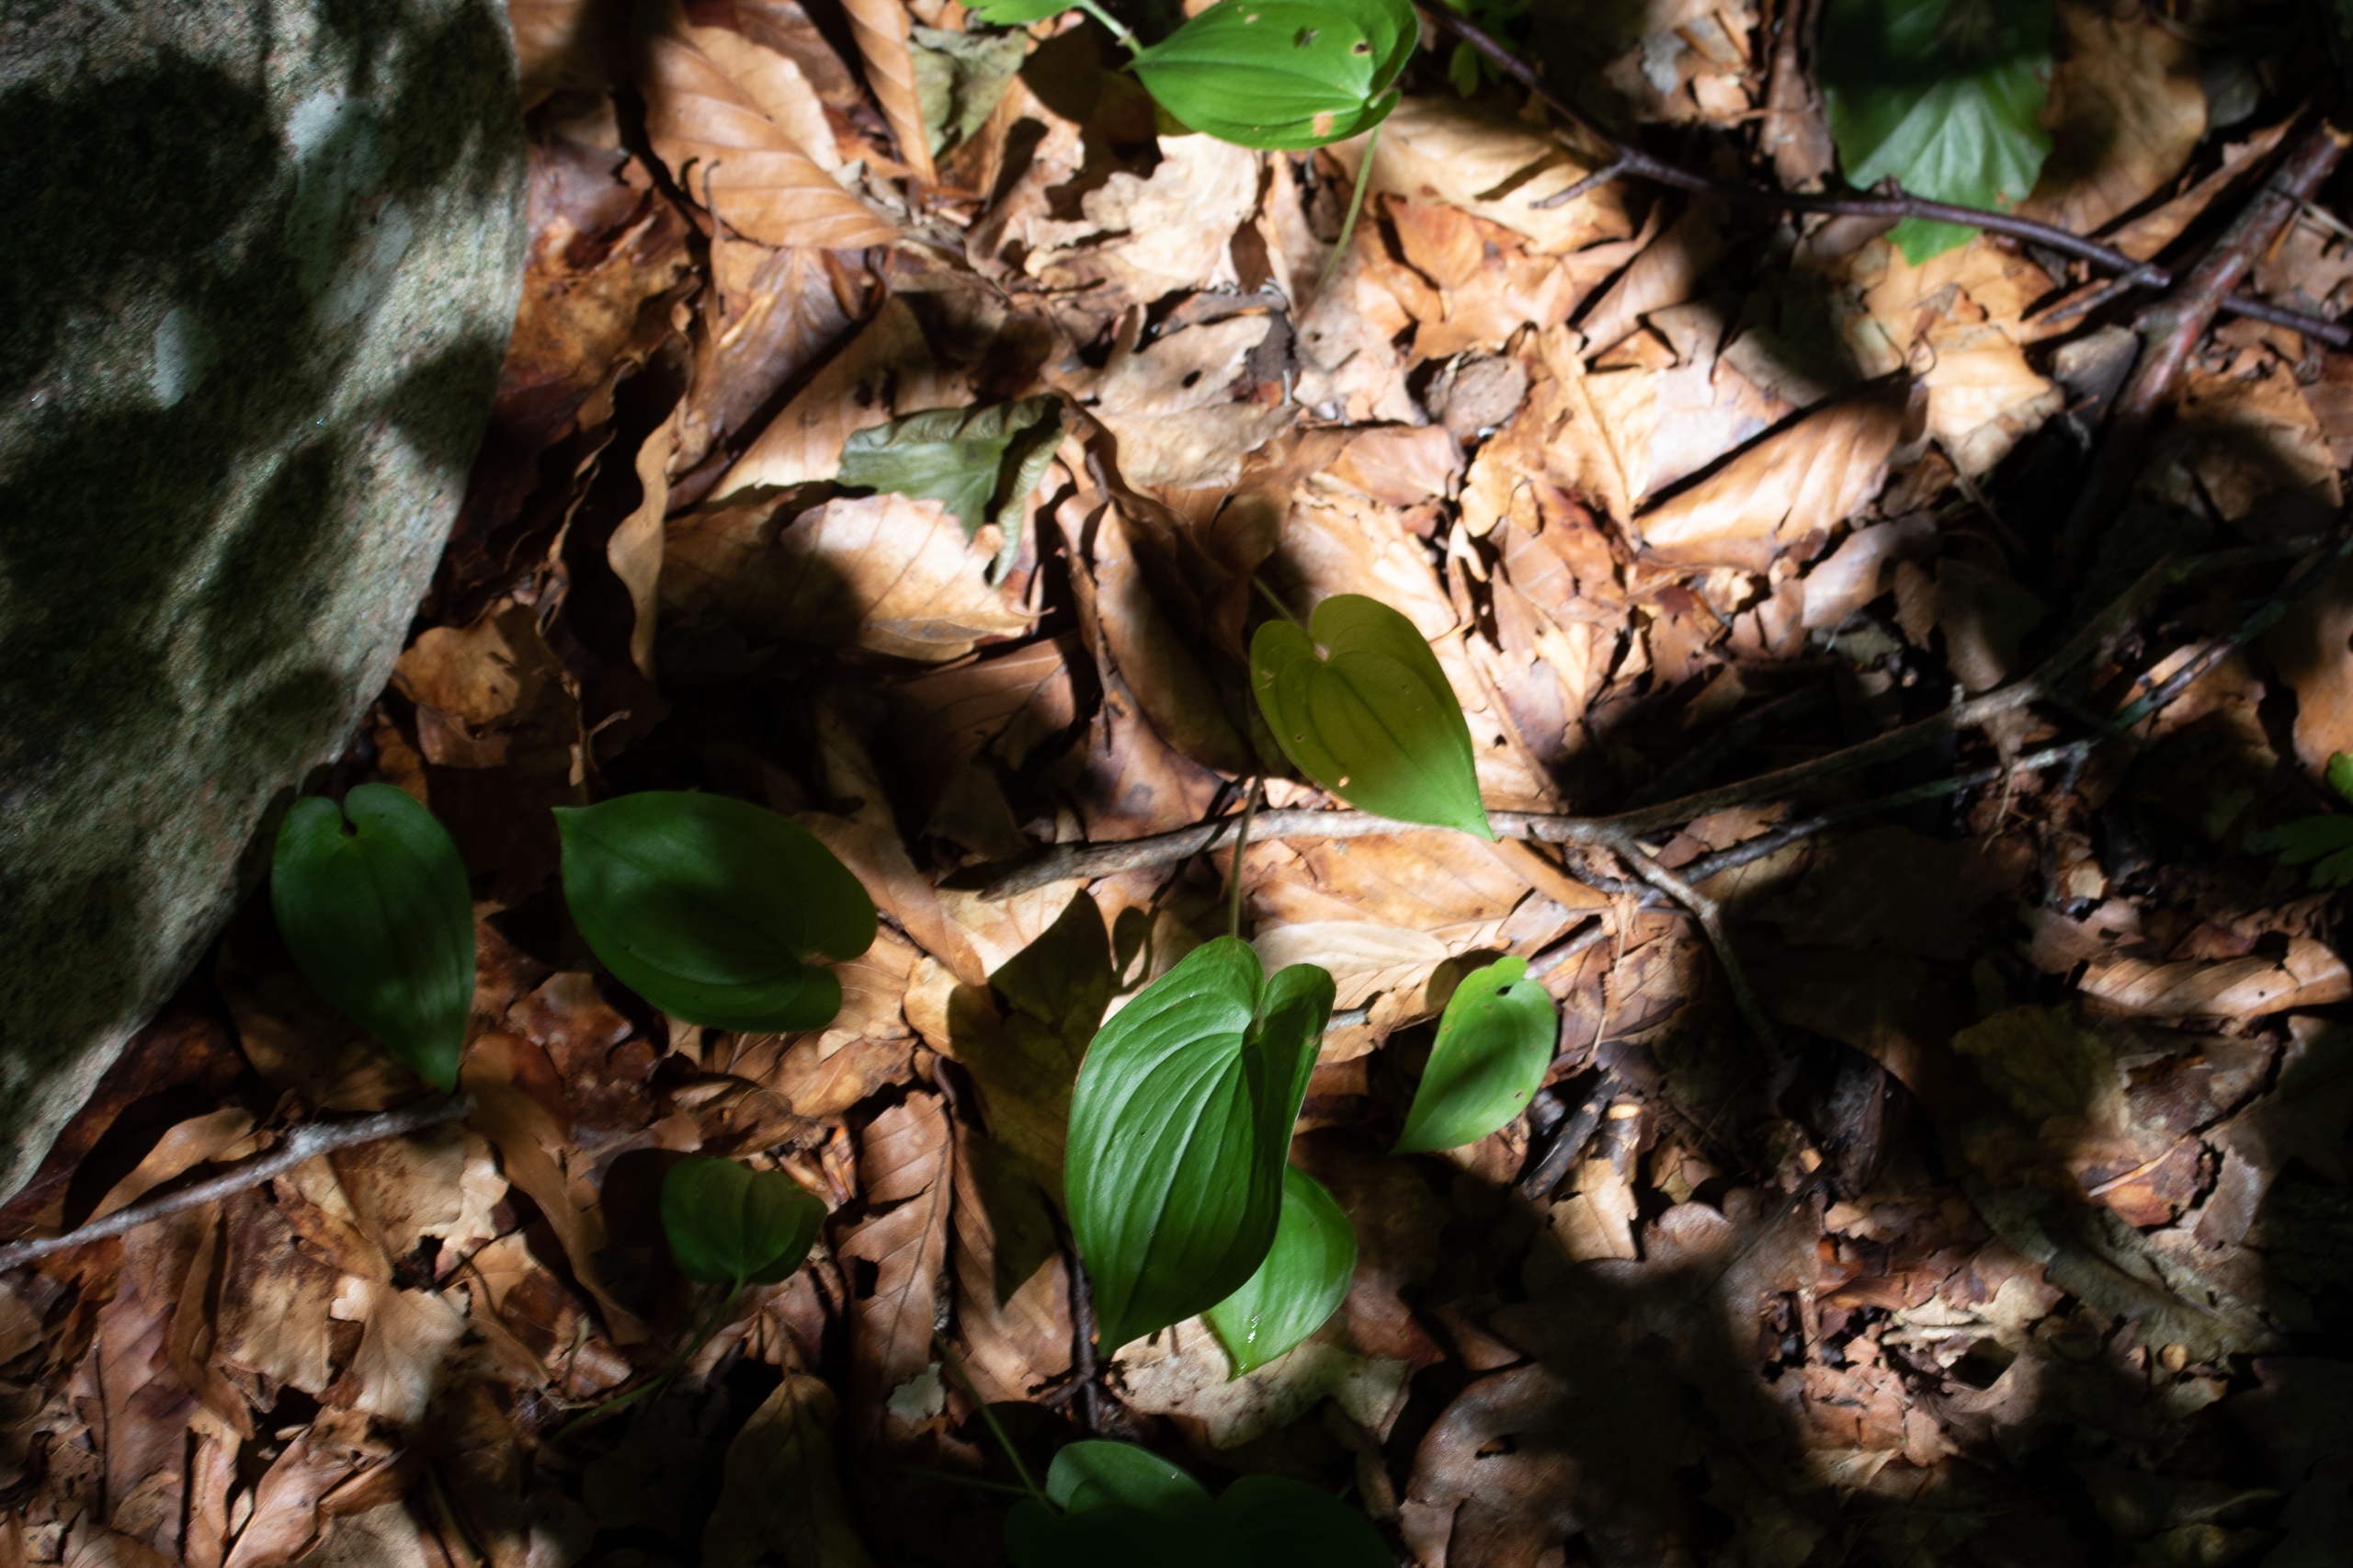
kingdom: Plantae
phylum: Tracheophyta
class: Liliopsida
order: Asparagales
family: Asparagaceae
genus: Maianthemum
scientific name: Maianthemum bifolium
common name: Majblomst
